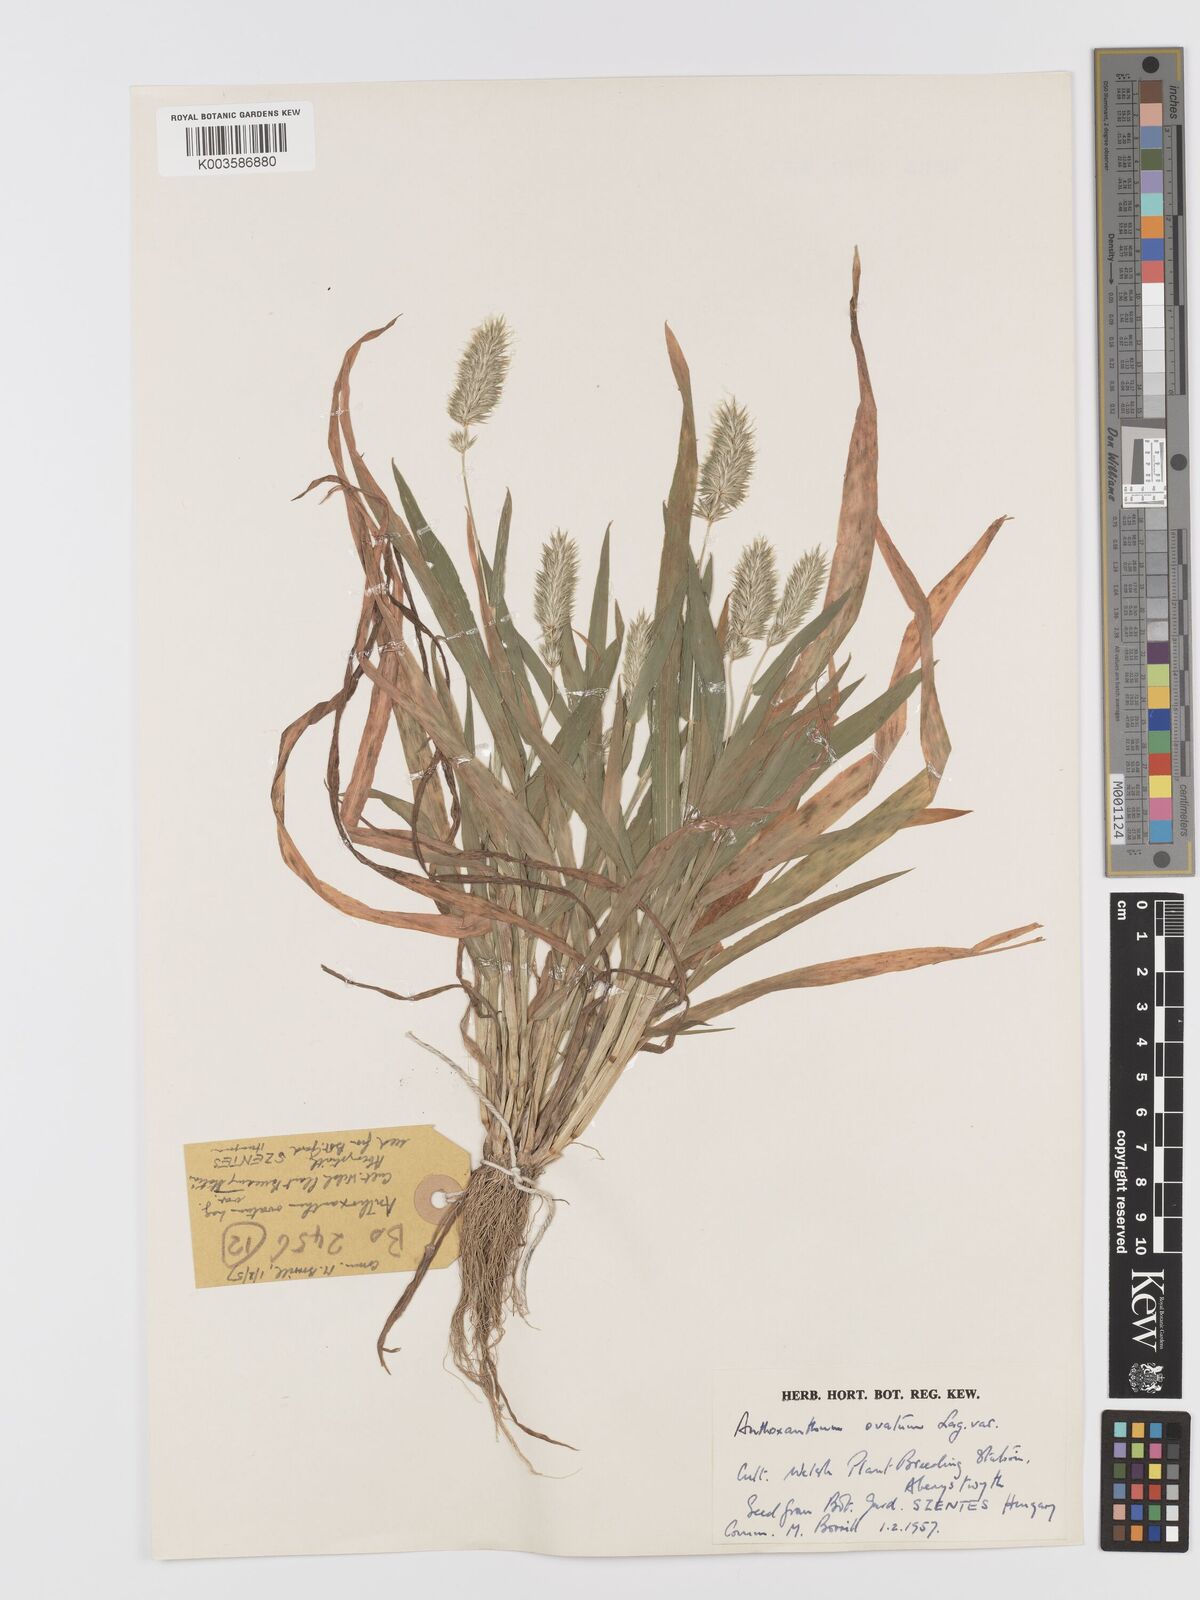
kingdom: Plantae
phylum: Tracheophyta
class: Liliopsida
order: Poales
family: Poaceae
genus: Anthoxanthum
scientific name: Anthoxanthum ovatum
